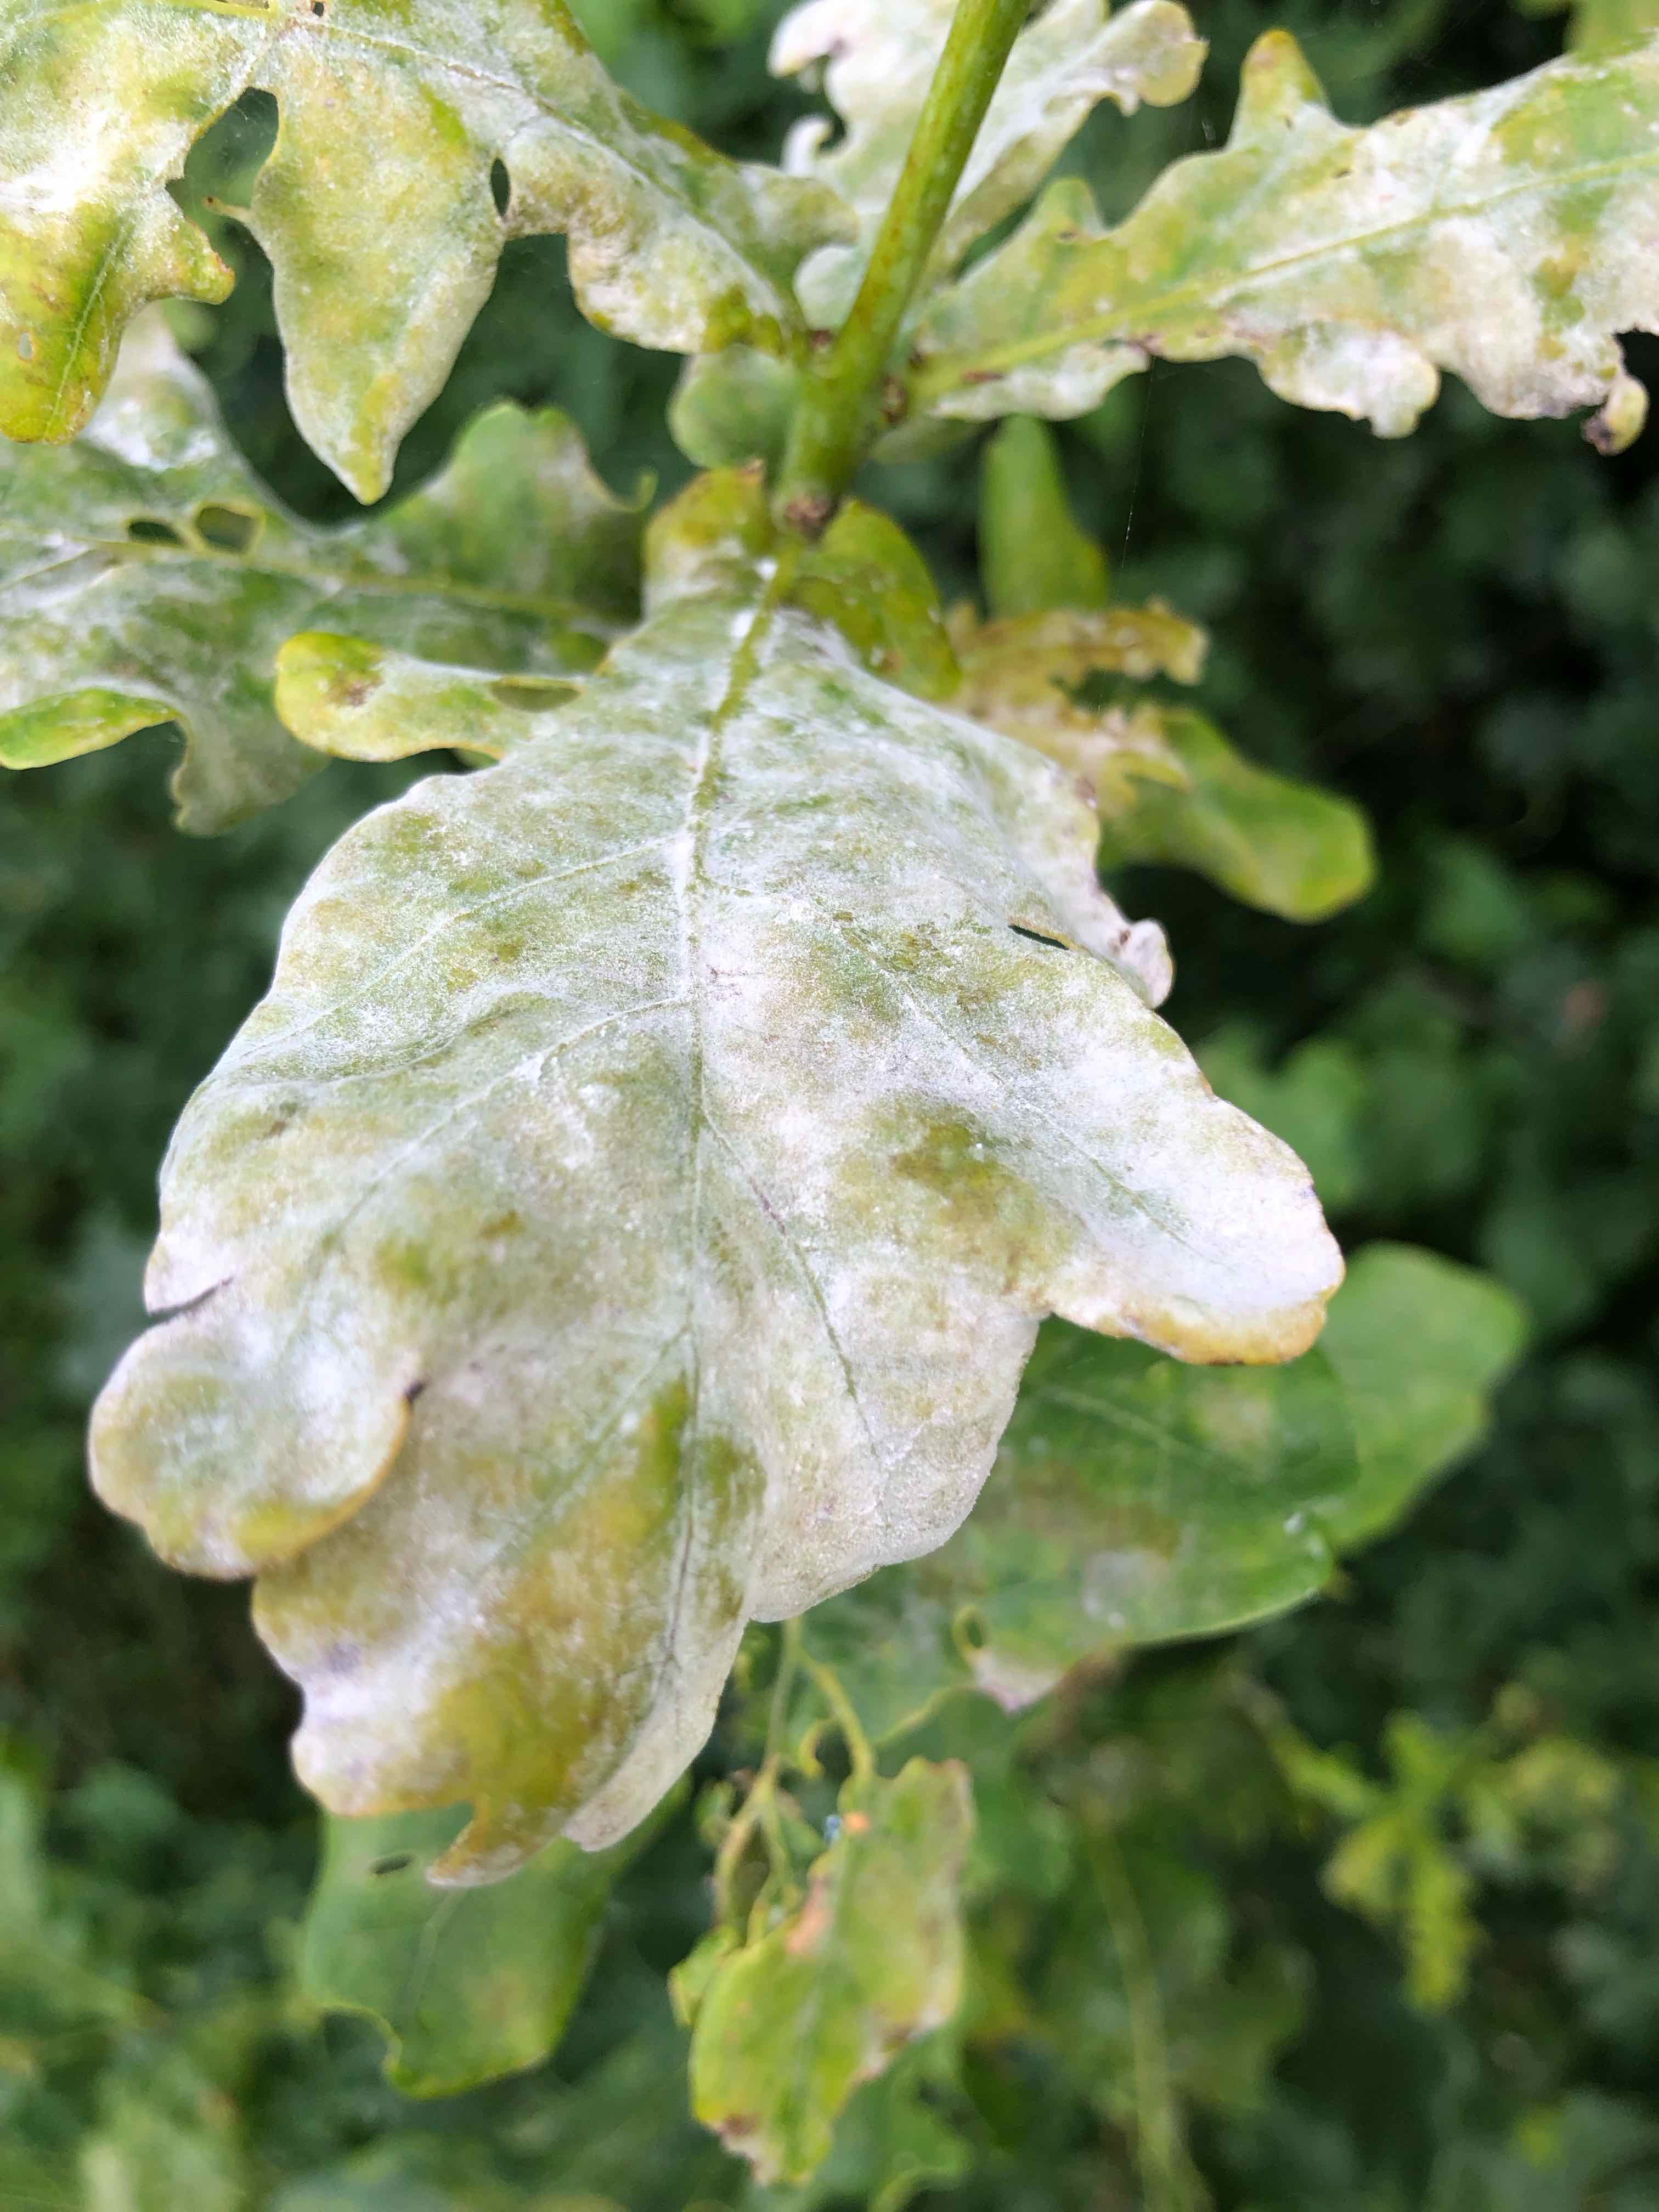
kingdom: Fungi
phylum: Ascomycota
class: Leotiomycetes
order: Helotiales
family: Erysiphaceae
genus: Erysiphe
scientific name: Erysiphe alphitoides
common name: ege-meldug
